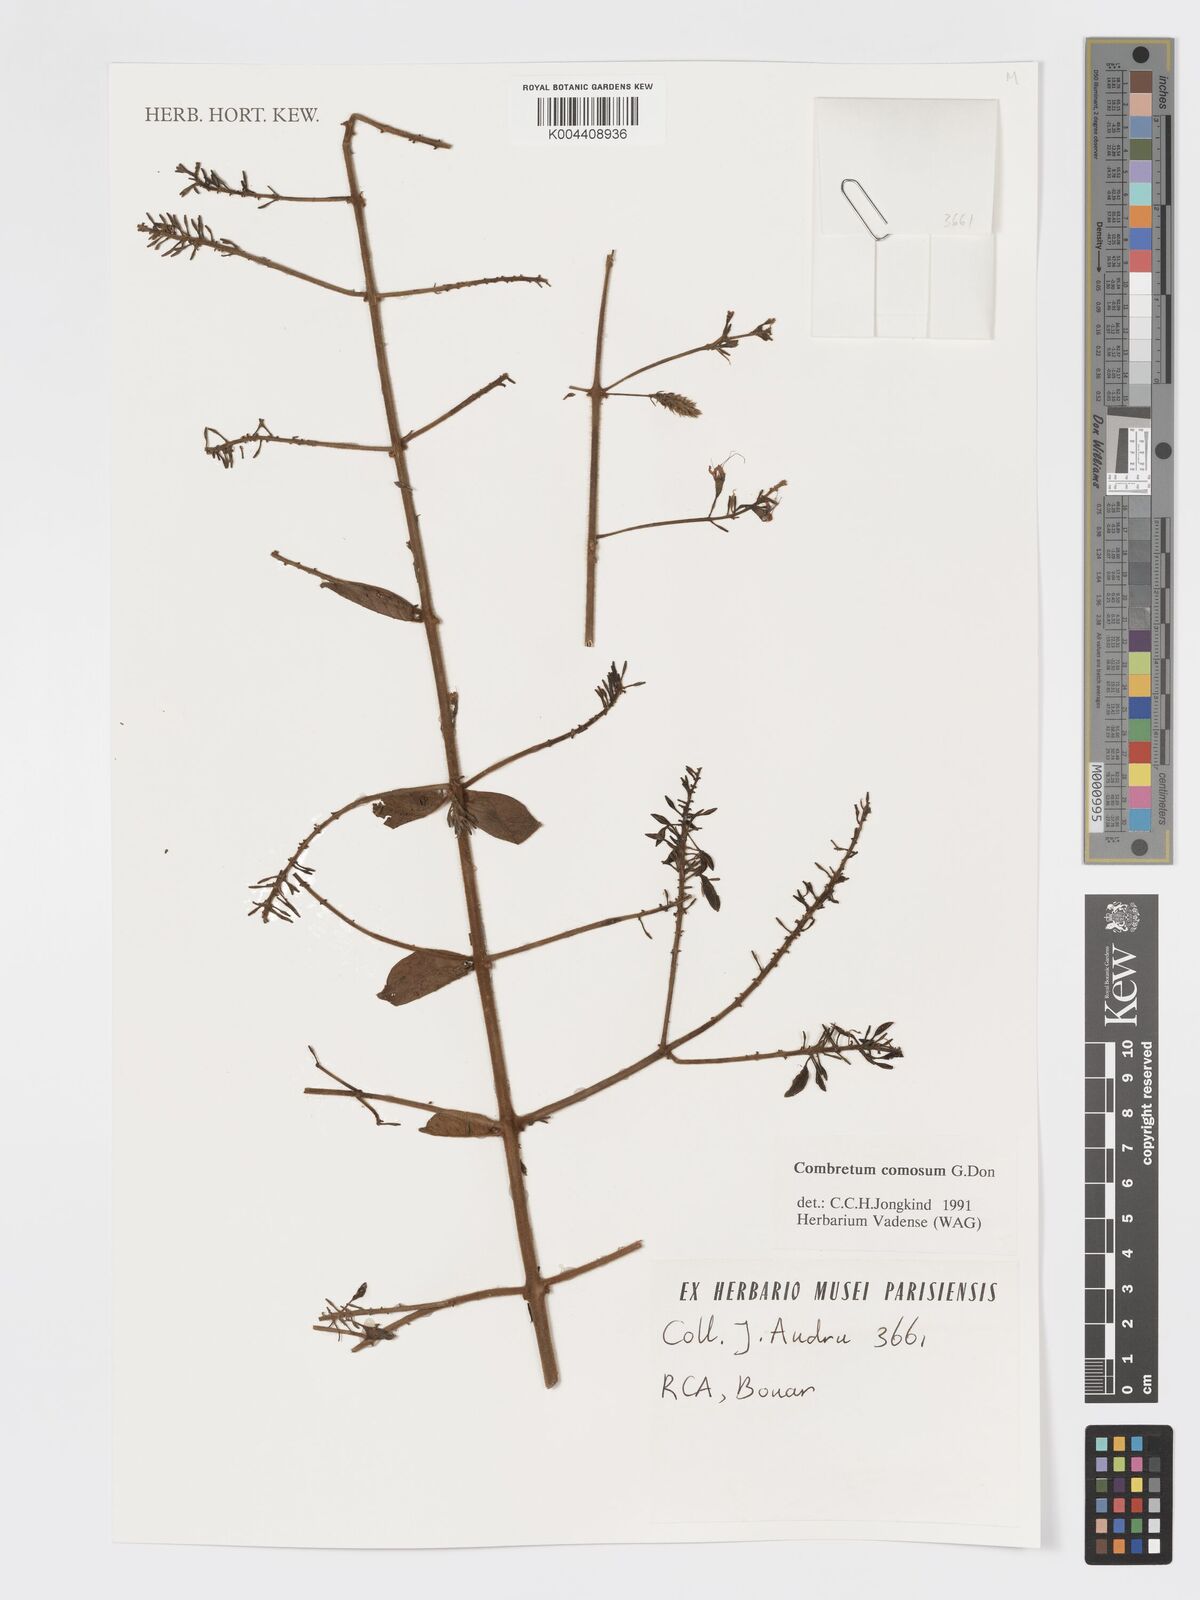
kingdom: Plantae
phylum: Tracheophyta
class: Magnoliopsida
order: Myrtales
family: Combretaceae
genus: Combretum
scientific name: Combretum comosum
